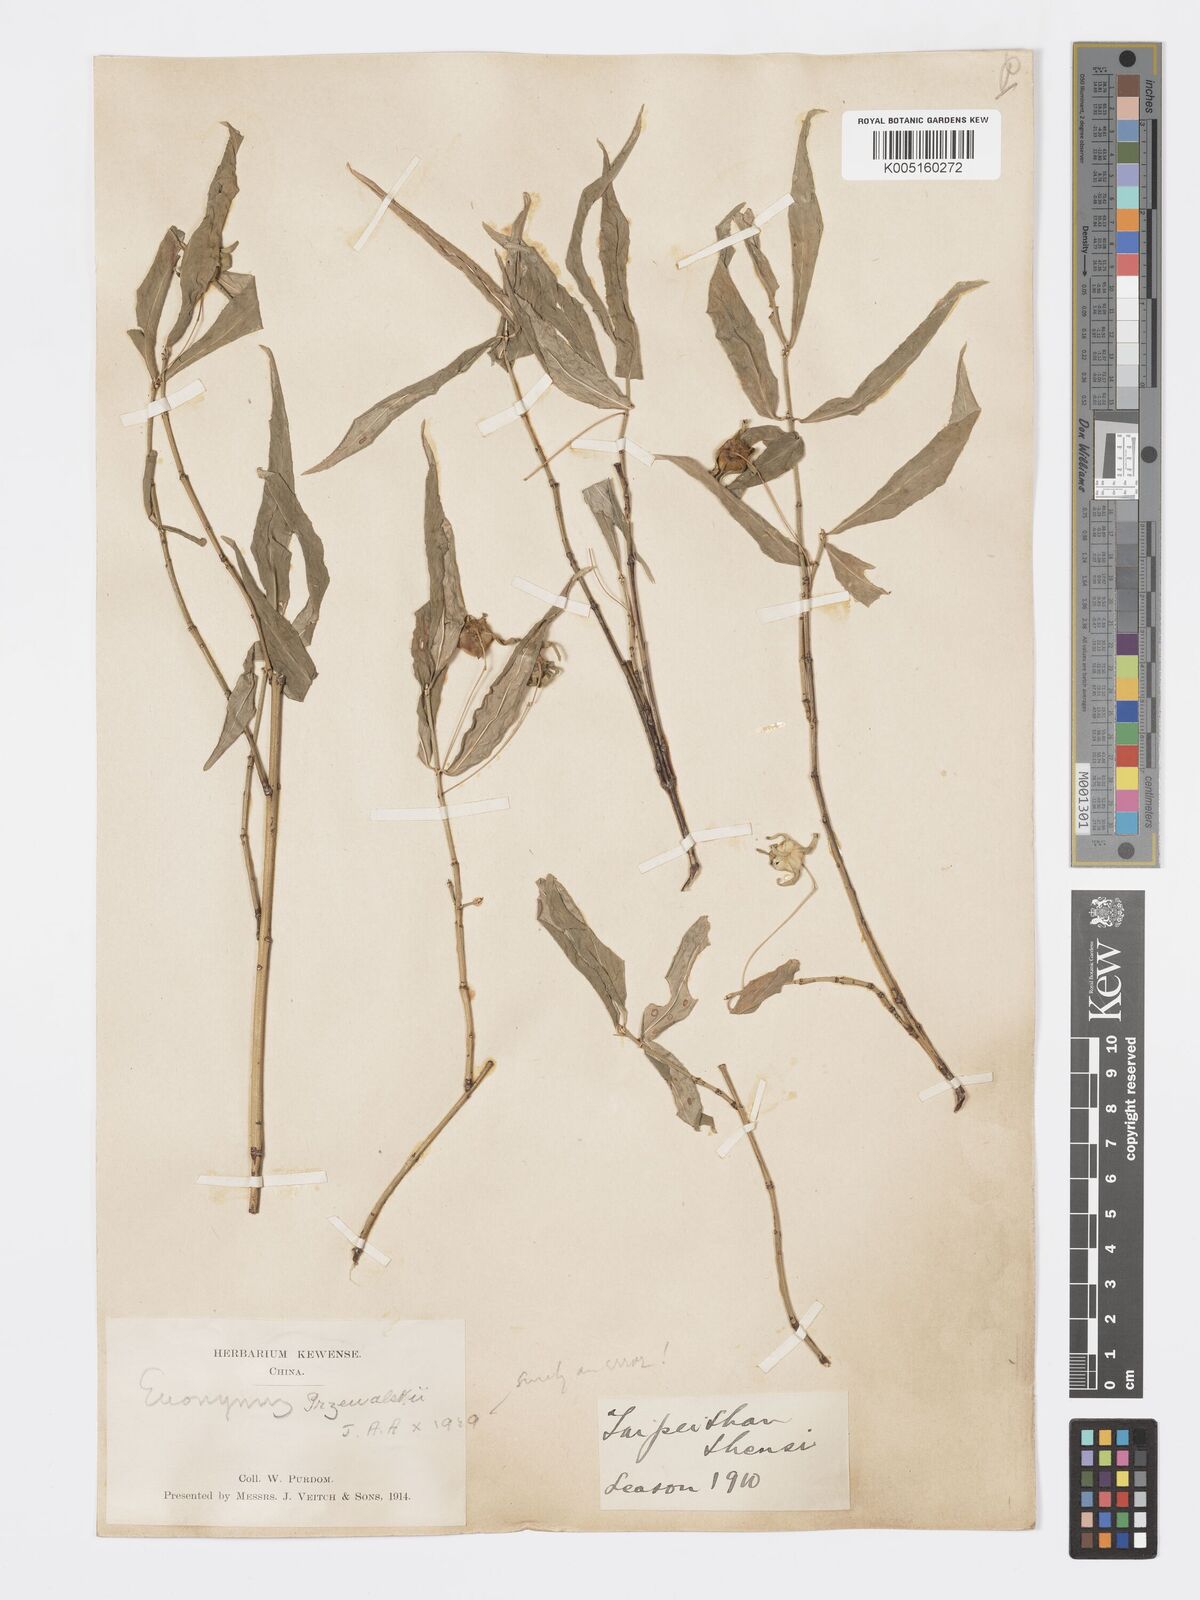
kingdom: Plantae
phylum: Tracheophyta
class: Magnoliopsida
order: Celastrales
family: Celastraceae
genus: Euonymus
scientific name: Euonymus cornutus
